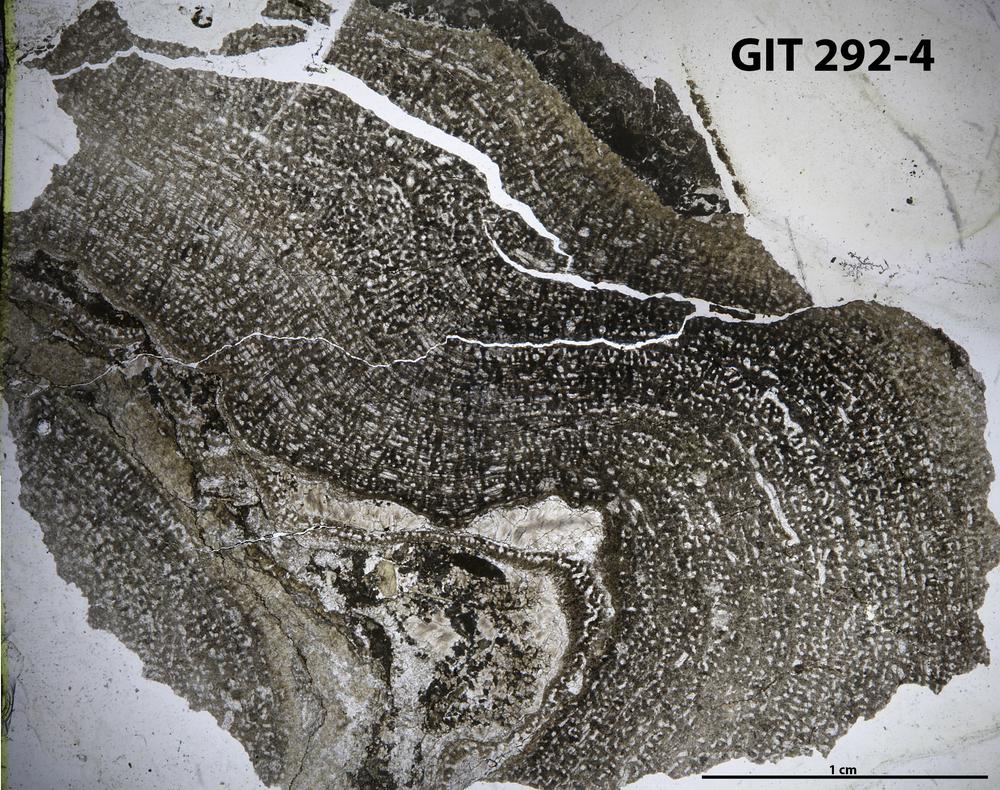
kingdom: Animalia
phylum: Porifera
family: Syringostromellidae
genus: Syringostromella
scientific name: Syringostromella
